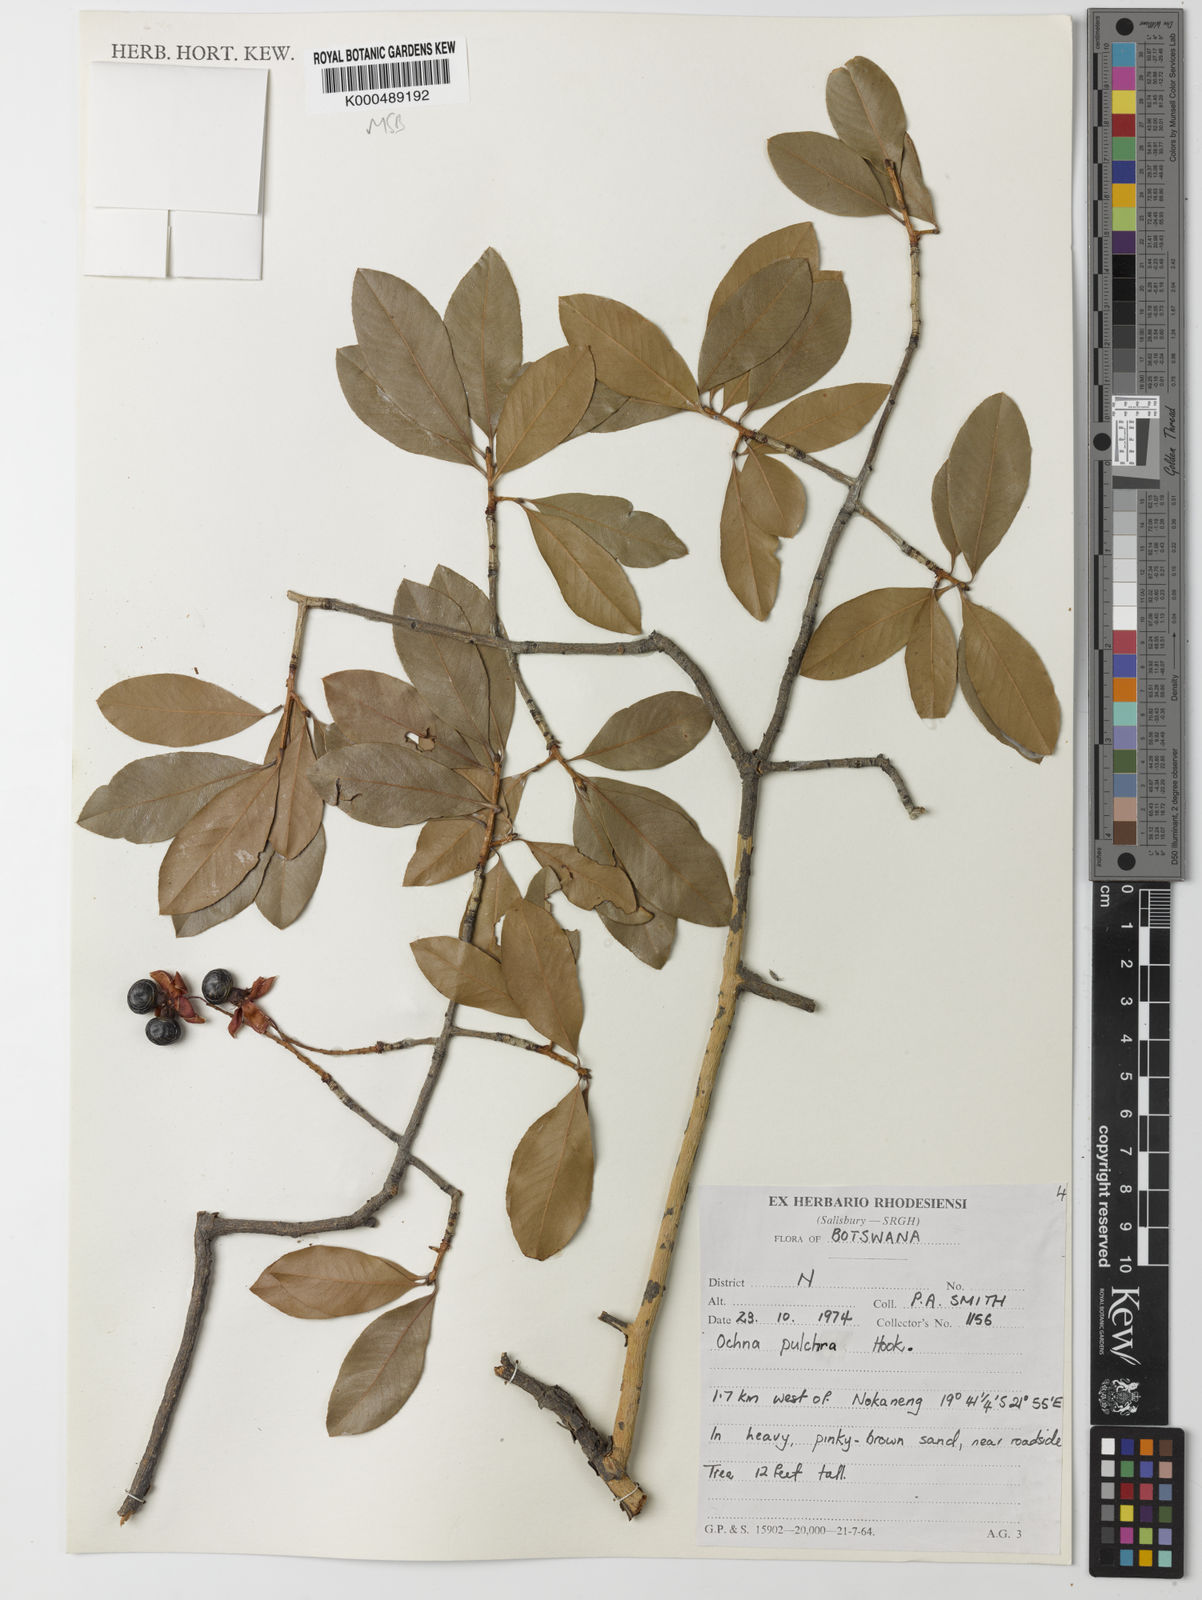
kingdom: Plantae
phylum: Tracheophyta
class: Magnoliopsida
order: Malpighiales
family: Ochnaceae
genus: Ochna
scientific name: Ochna pulchra
